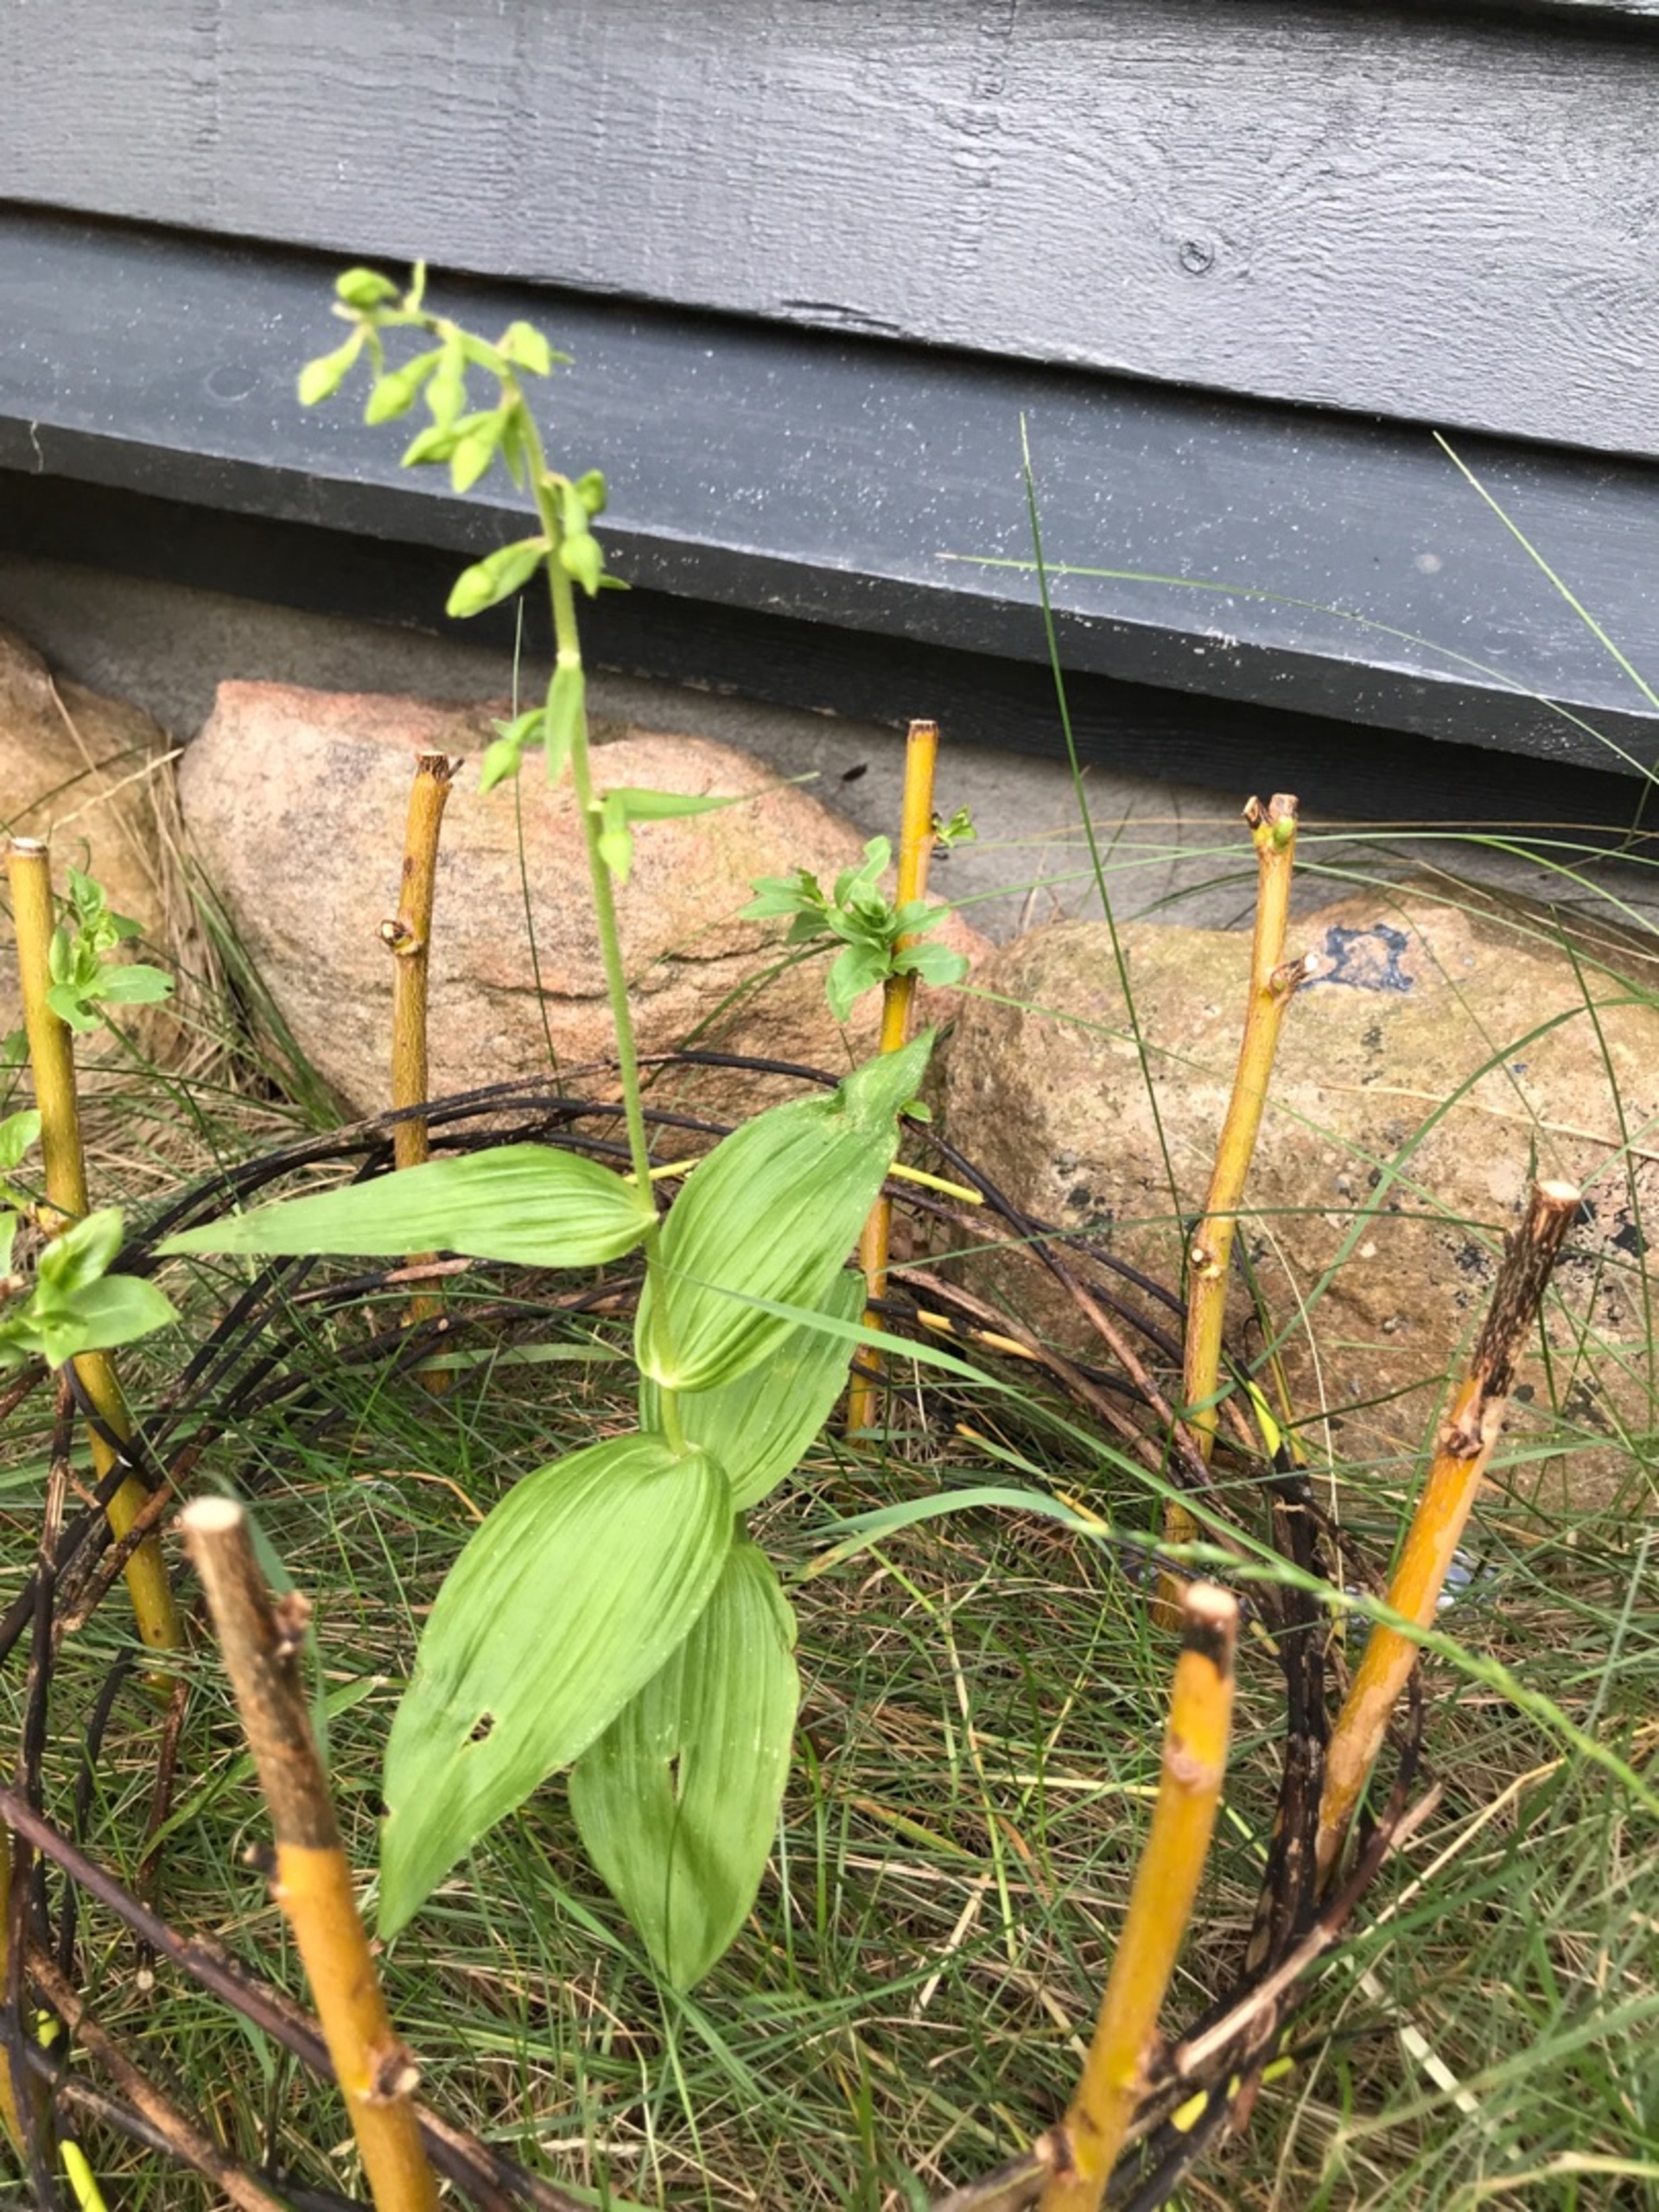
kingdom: Plantae
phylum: Tracheophyta
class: Liliopsida
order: Asparagales
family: Orchidaceae
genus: Epipactis
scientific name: Epipactis helleborine
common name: Skov-hullæbe
